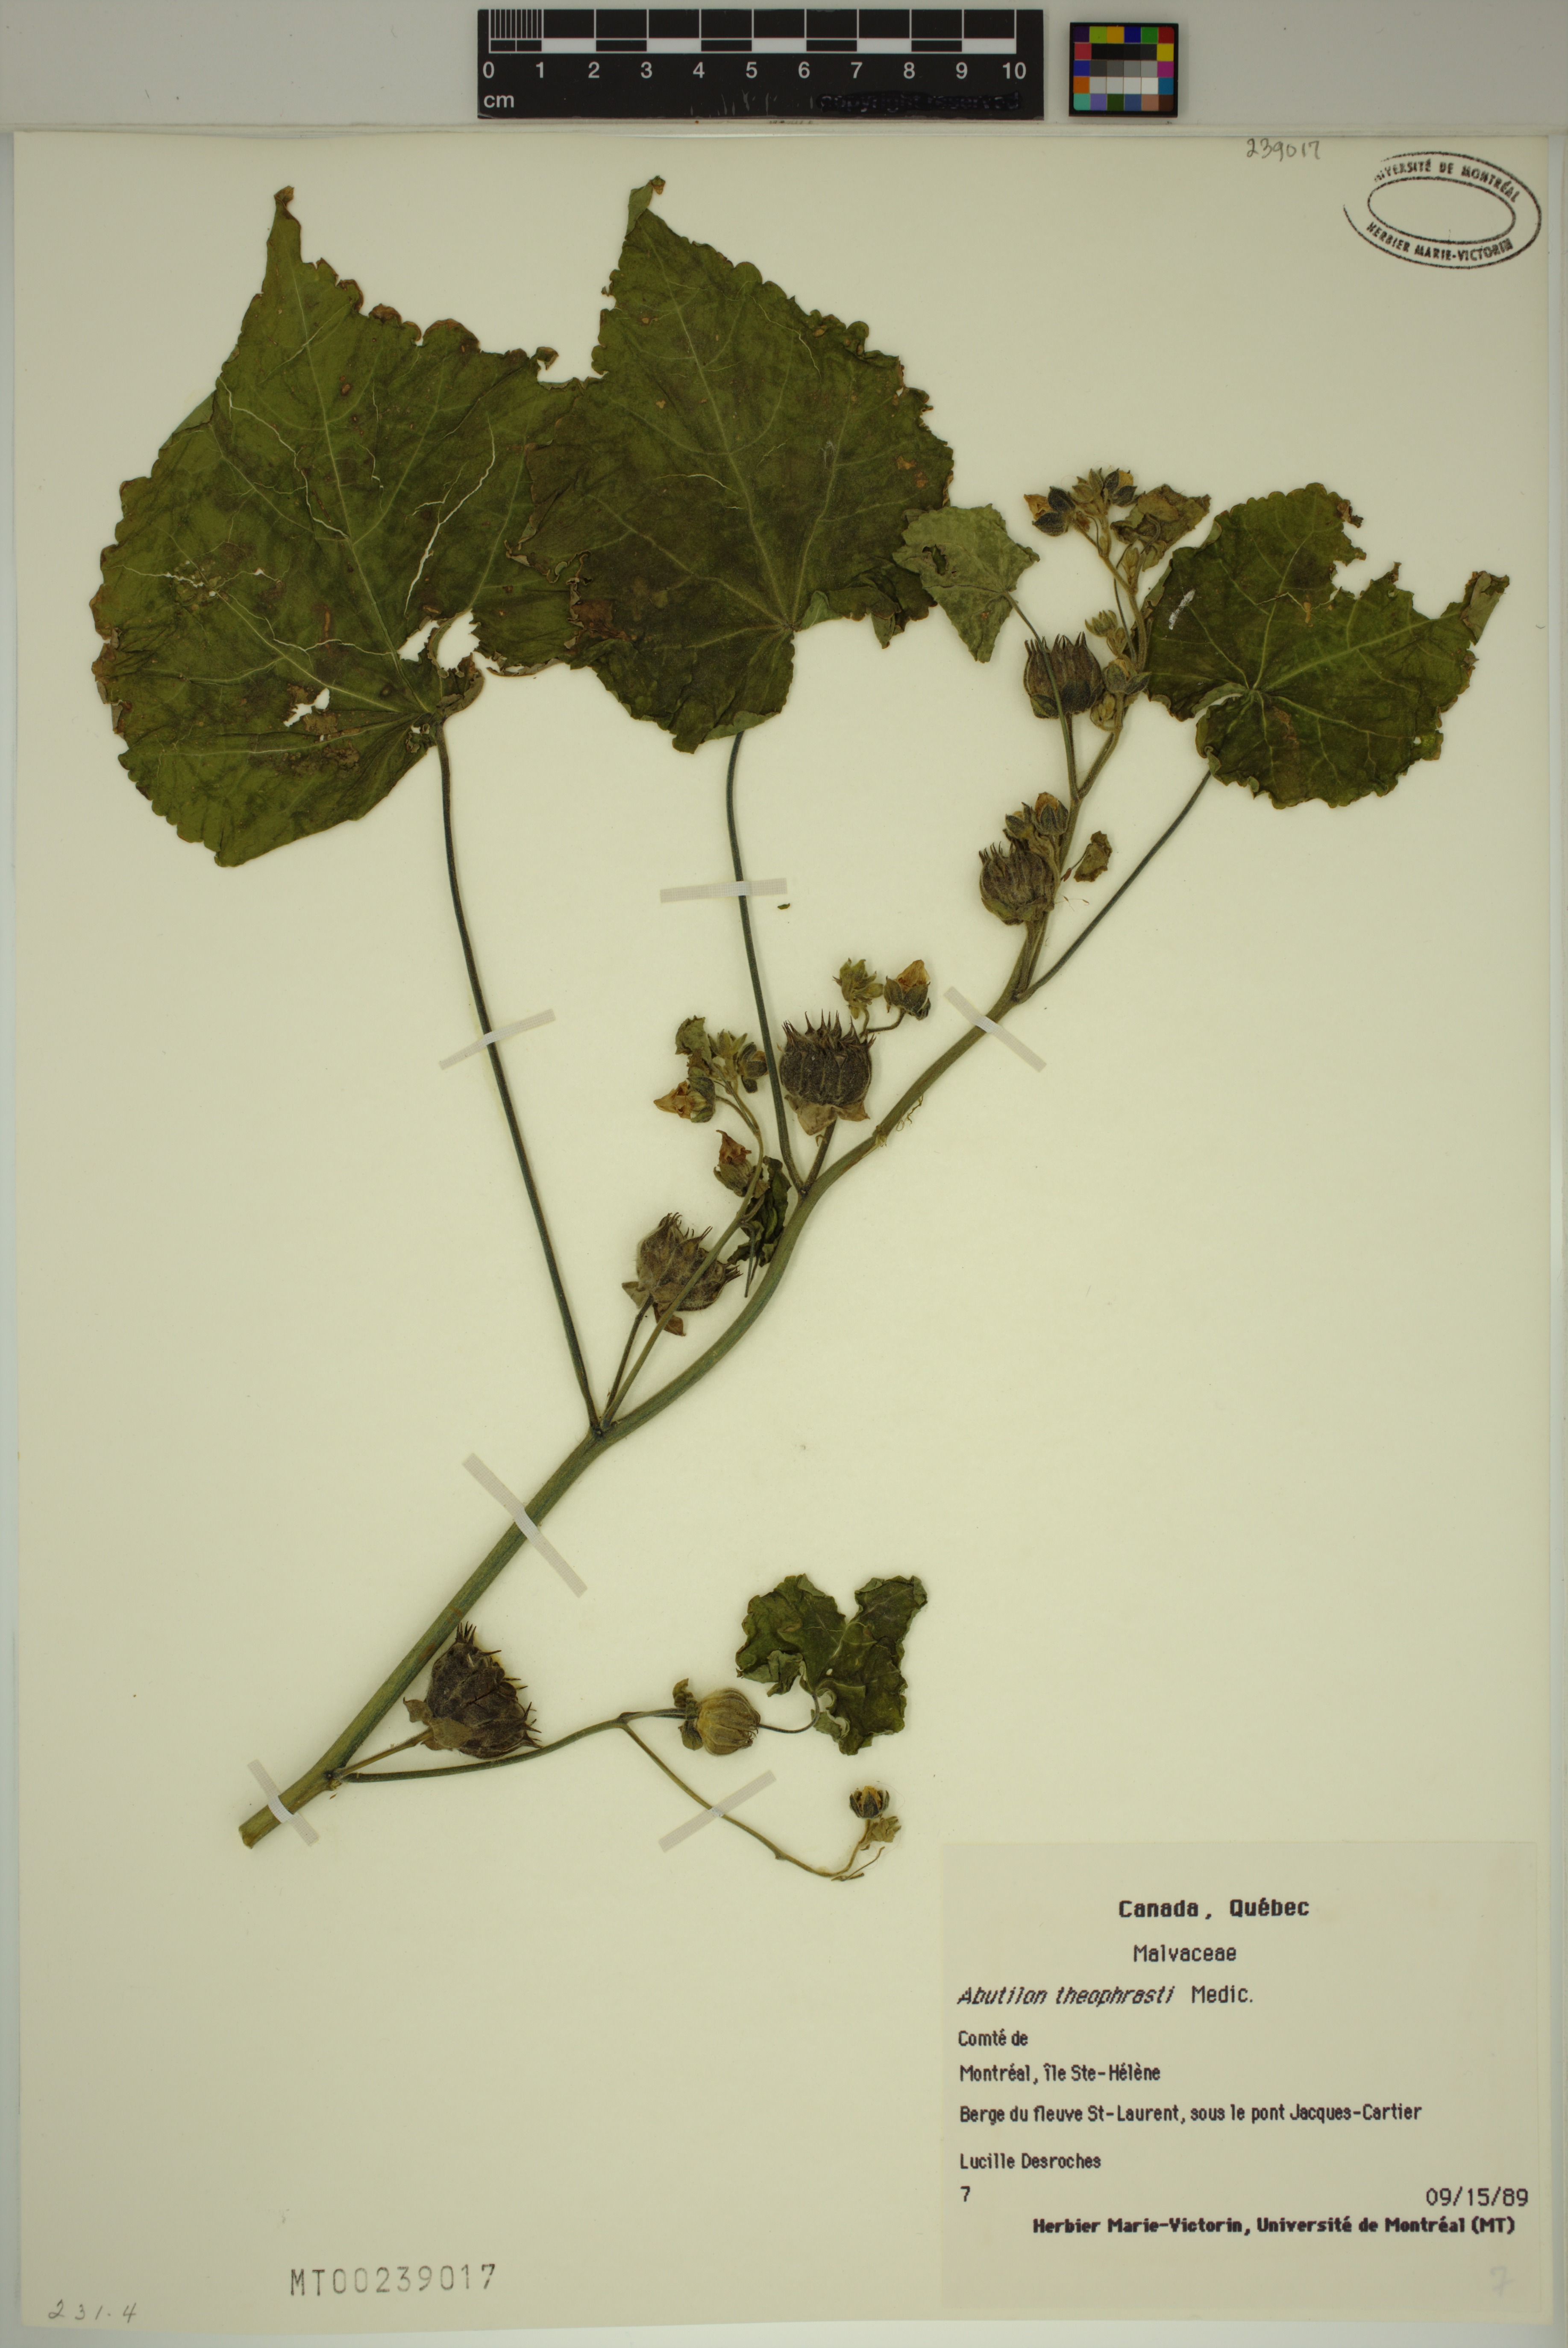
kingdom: Plantae
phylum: Tracheophyta
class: Magnoliopsida
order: Malvales
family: Malvaceae
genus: Abutilon
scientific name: Abutilon theophrasti
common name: Velvetleaf
